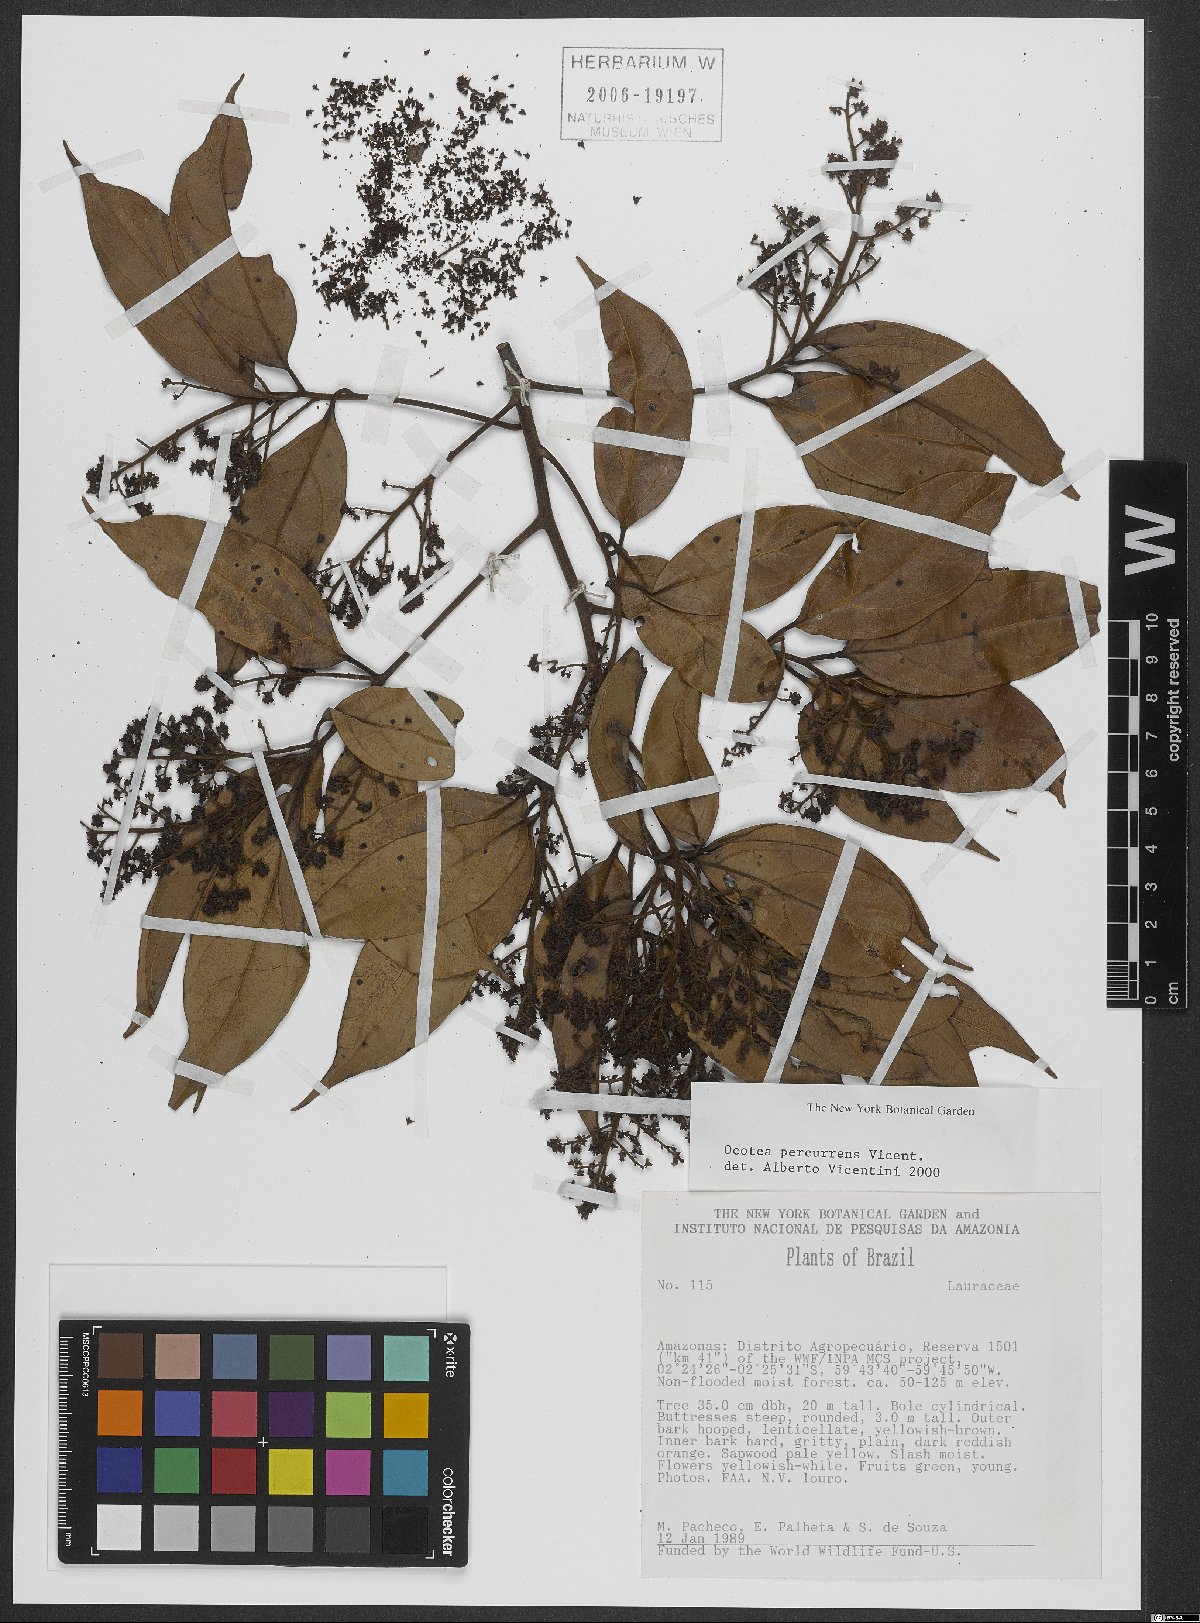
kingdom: Plantae
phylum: Tracheophyta
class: Magnoliopsida
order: Laurales
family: Lauraceae
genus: Ocotea
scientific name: Ocotea percurrens
